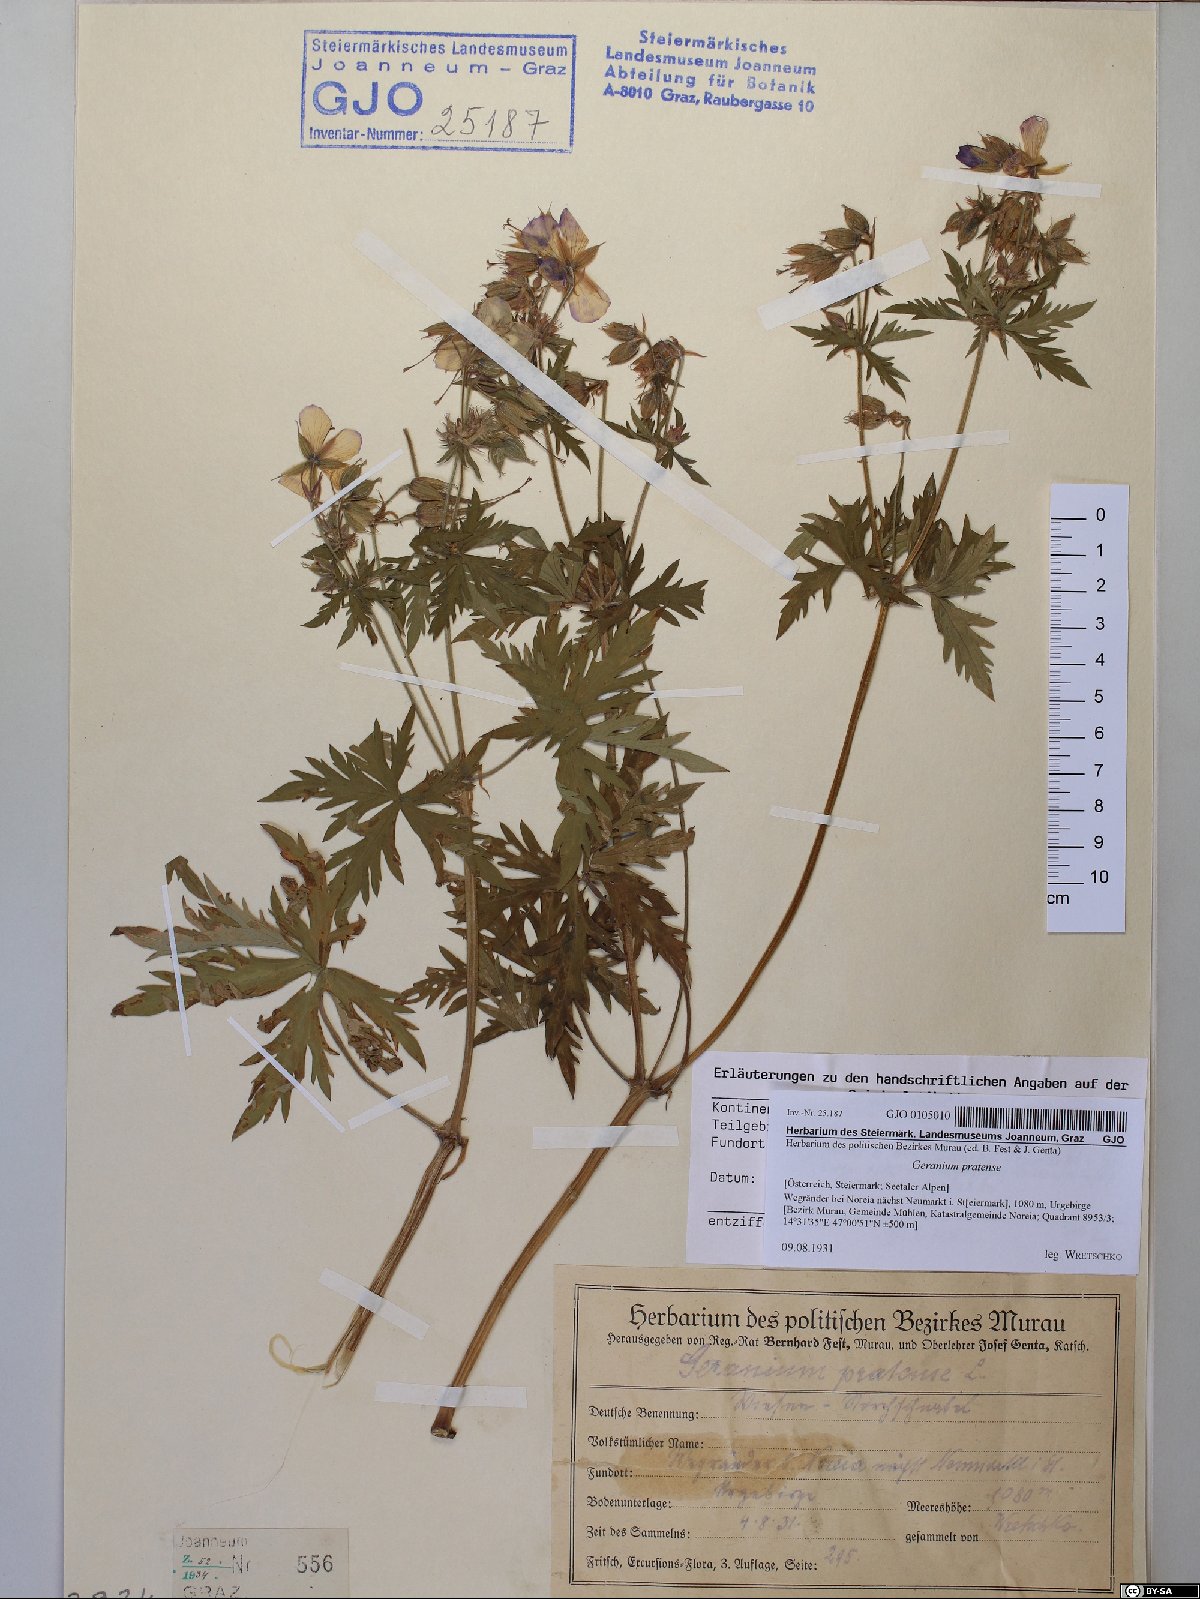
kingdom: Plantae
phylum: Tracheophyta
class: Magnoliopsida
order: Geraniales
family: Geraniaceae
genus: Geranium
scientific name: Geranium pratense
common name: Meadow crane's-bill
